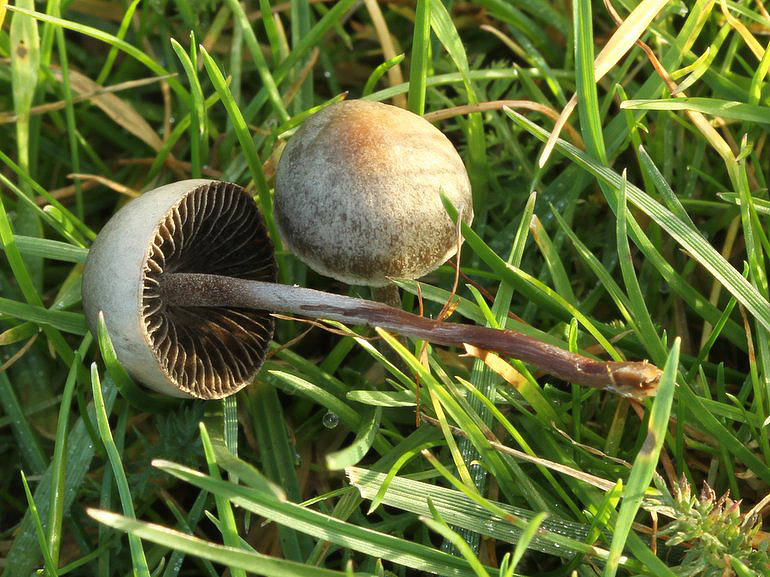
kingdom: Fungi
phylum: Basidiomycota
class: Agaricomycetes
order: Agaricales
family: Bolbitiaceae
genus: Panaeolus
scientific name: Panaeolus olivaceus
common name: lysstokket glanshat
